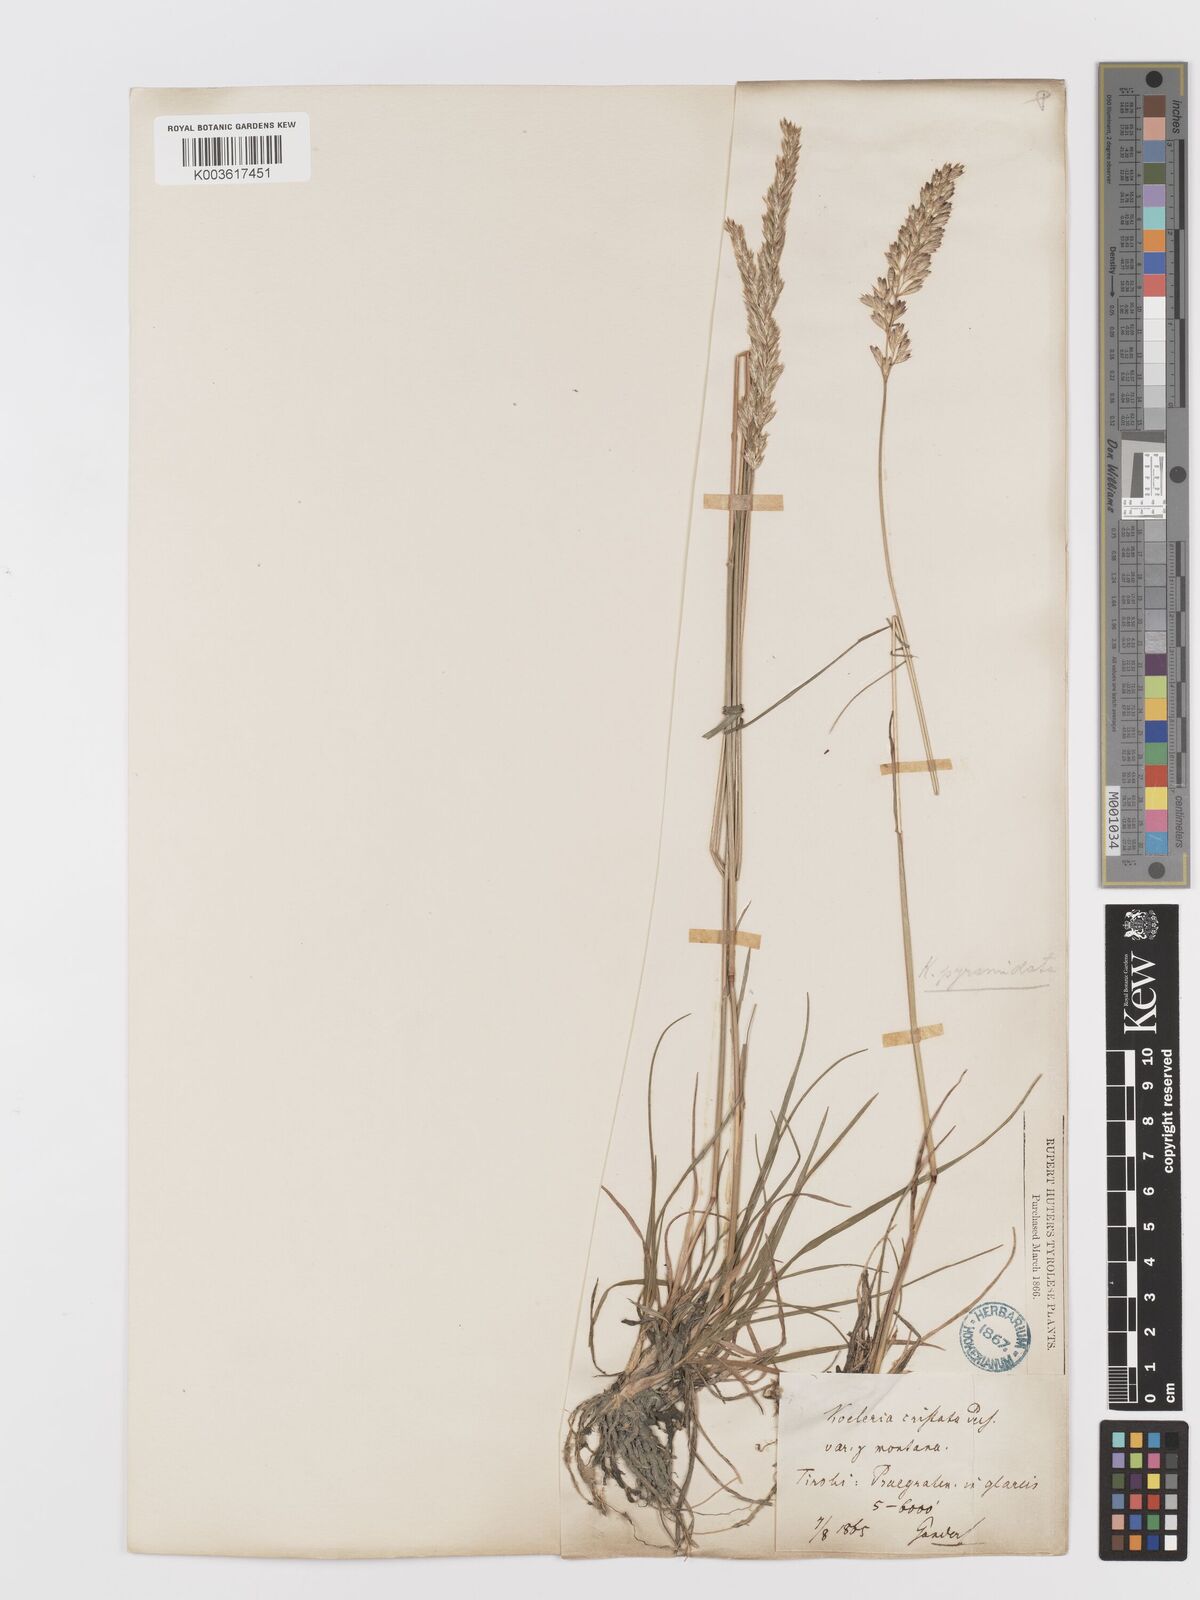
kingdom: Plantae
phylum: Tracheophyta
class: Liliopsida
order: Poales
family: Poaceae
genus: Koeleria
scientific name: Koeleria pyramidata
